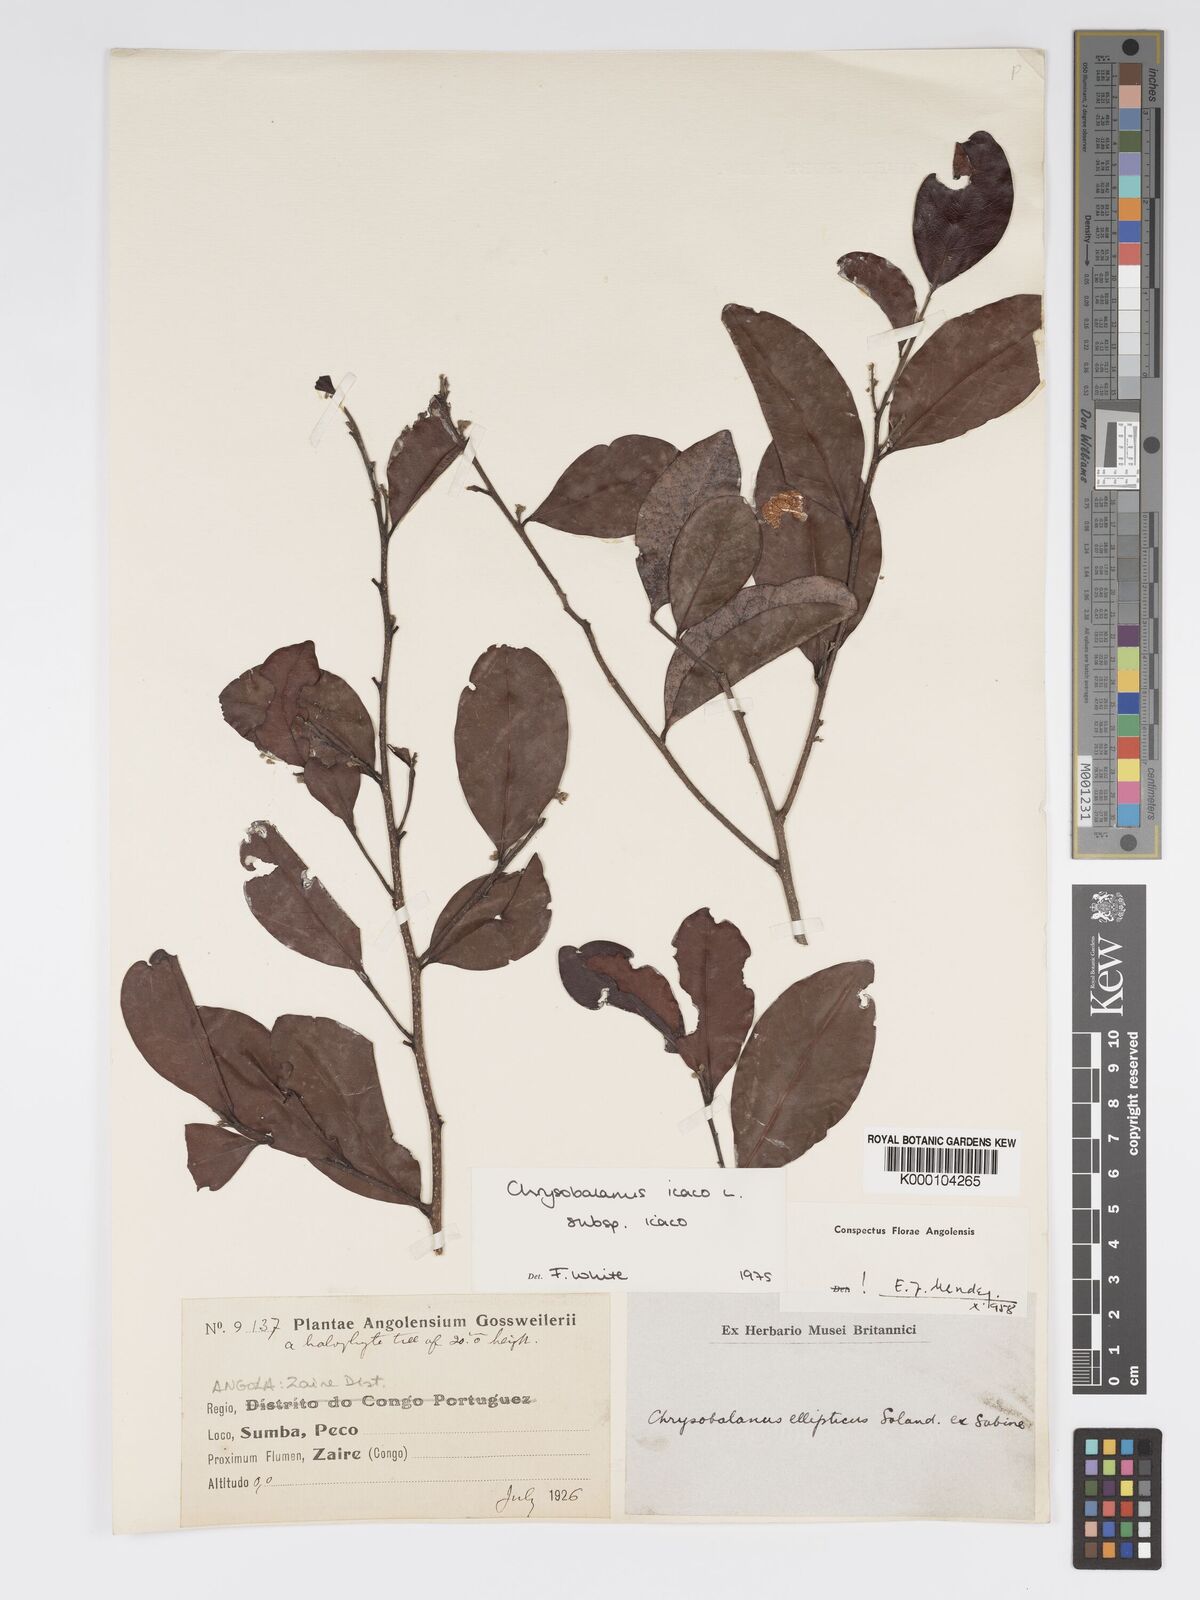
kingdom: Plantae
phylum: Tracheophyta
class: Magnoliopsida
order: Malpighiales
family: Chrysobalanaceae
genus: Chrysobalanus
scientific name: Chrysobalanus icaco
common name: Coco plum
